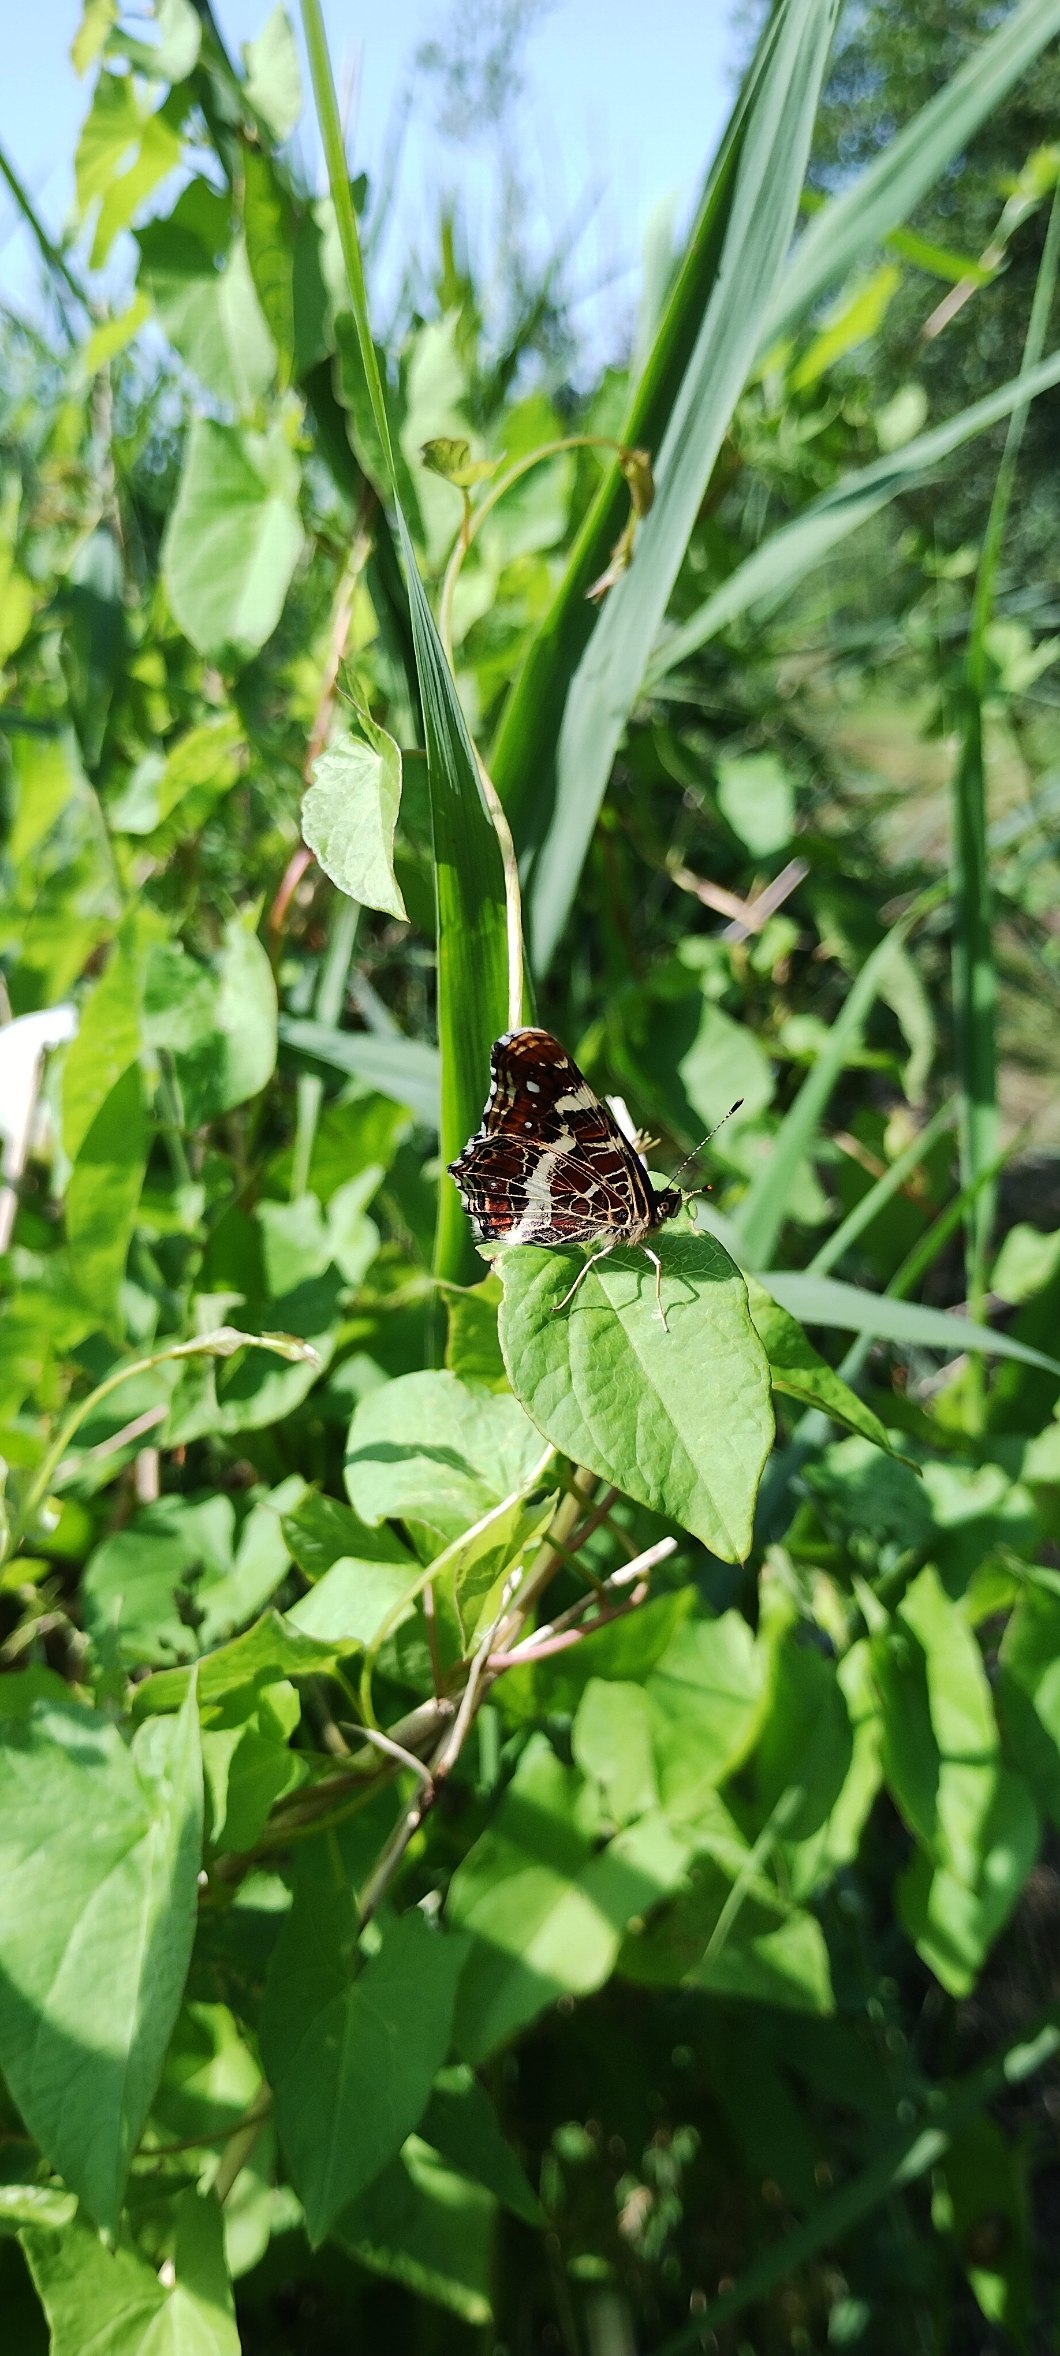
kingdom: Animalia
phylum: Arthropoda
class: Insecta
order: Lepidoptera
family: Nymphalidae
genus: Araschnia
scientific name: Araschnia levana
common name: Nældesommerfugl
